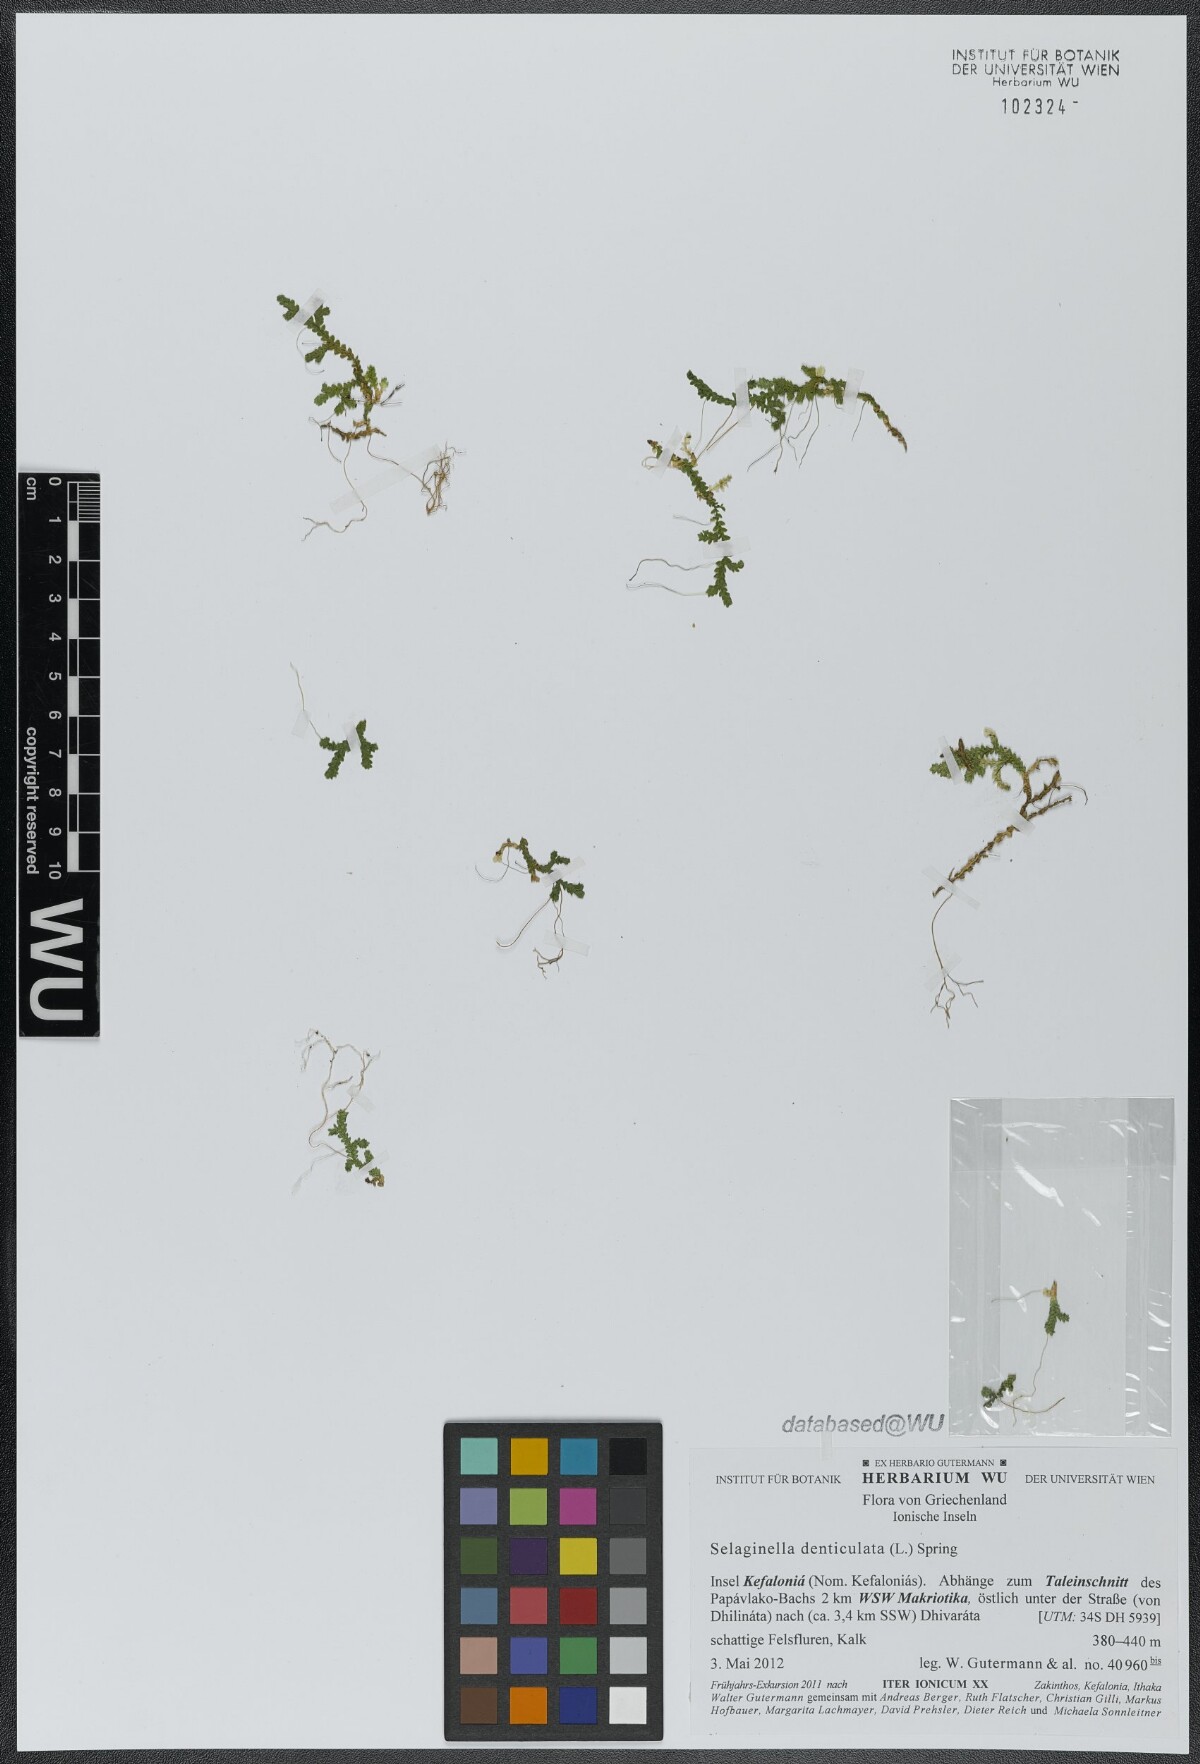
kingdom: Plantae
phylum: Tracheophyta
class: Lycopodiopsida
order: Selaginellales
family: Selaginellaceae
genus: Selaginella
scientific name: Selaginella denticulata
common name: Toothed-leaved clubmoss
